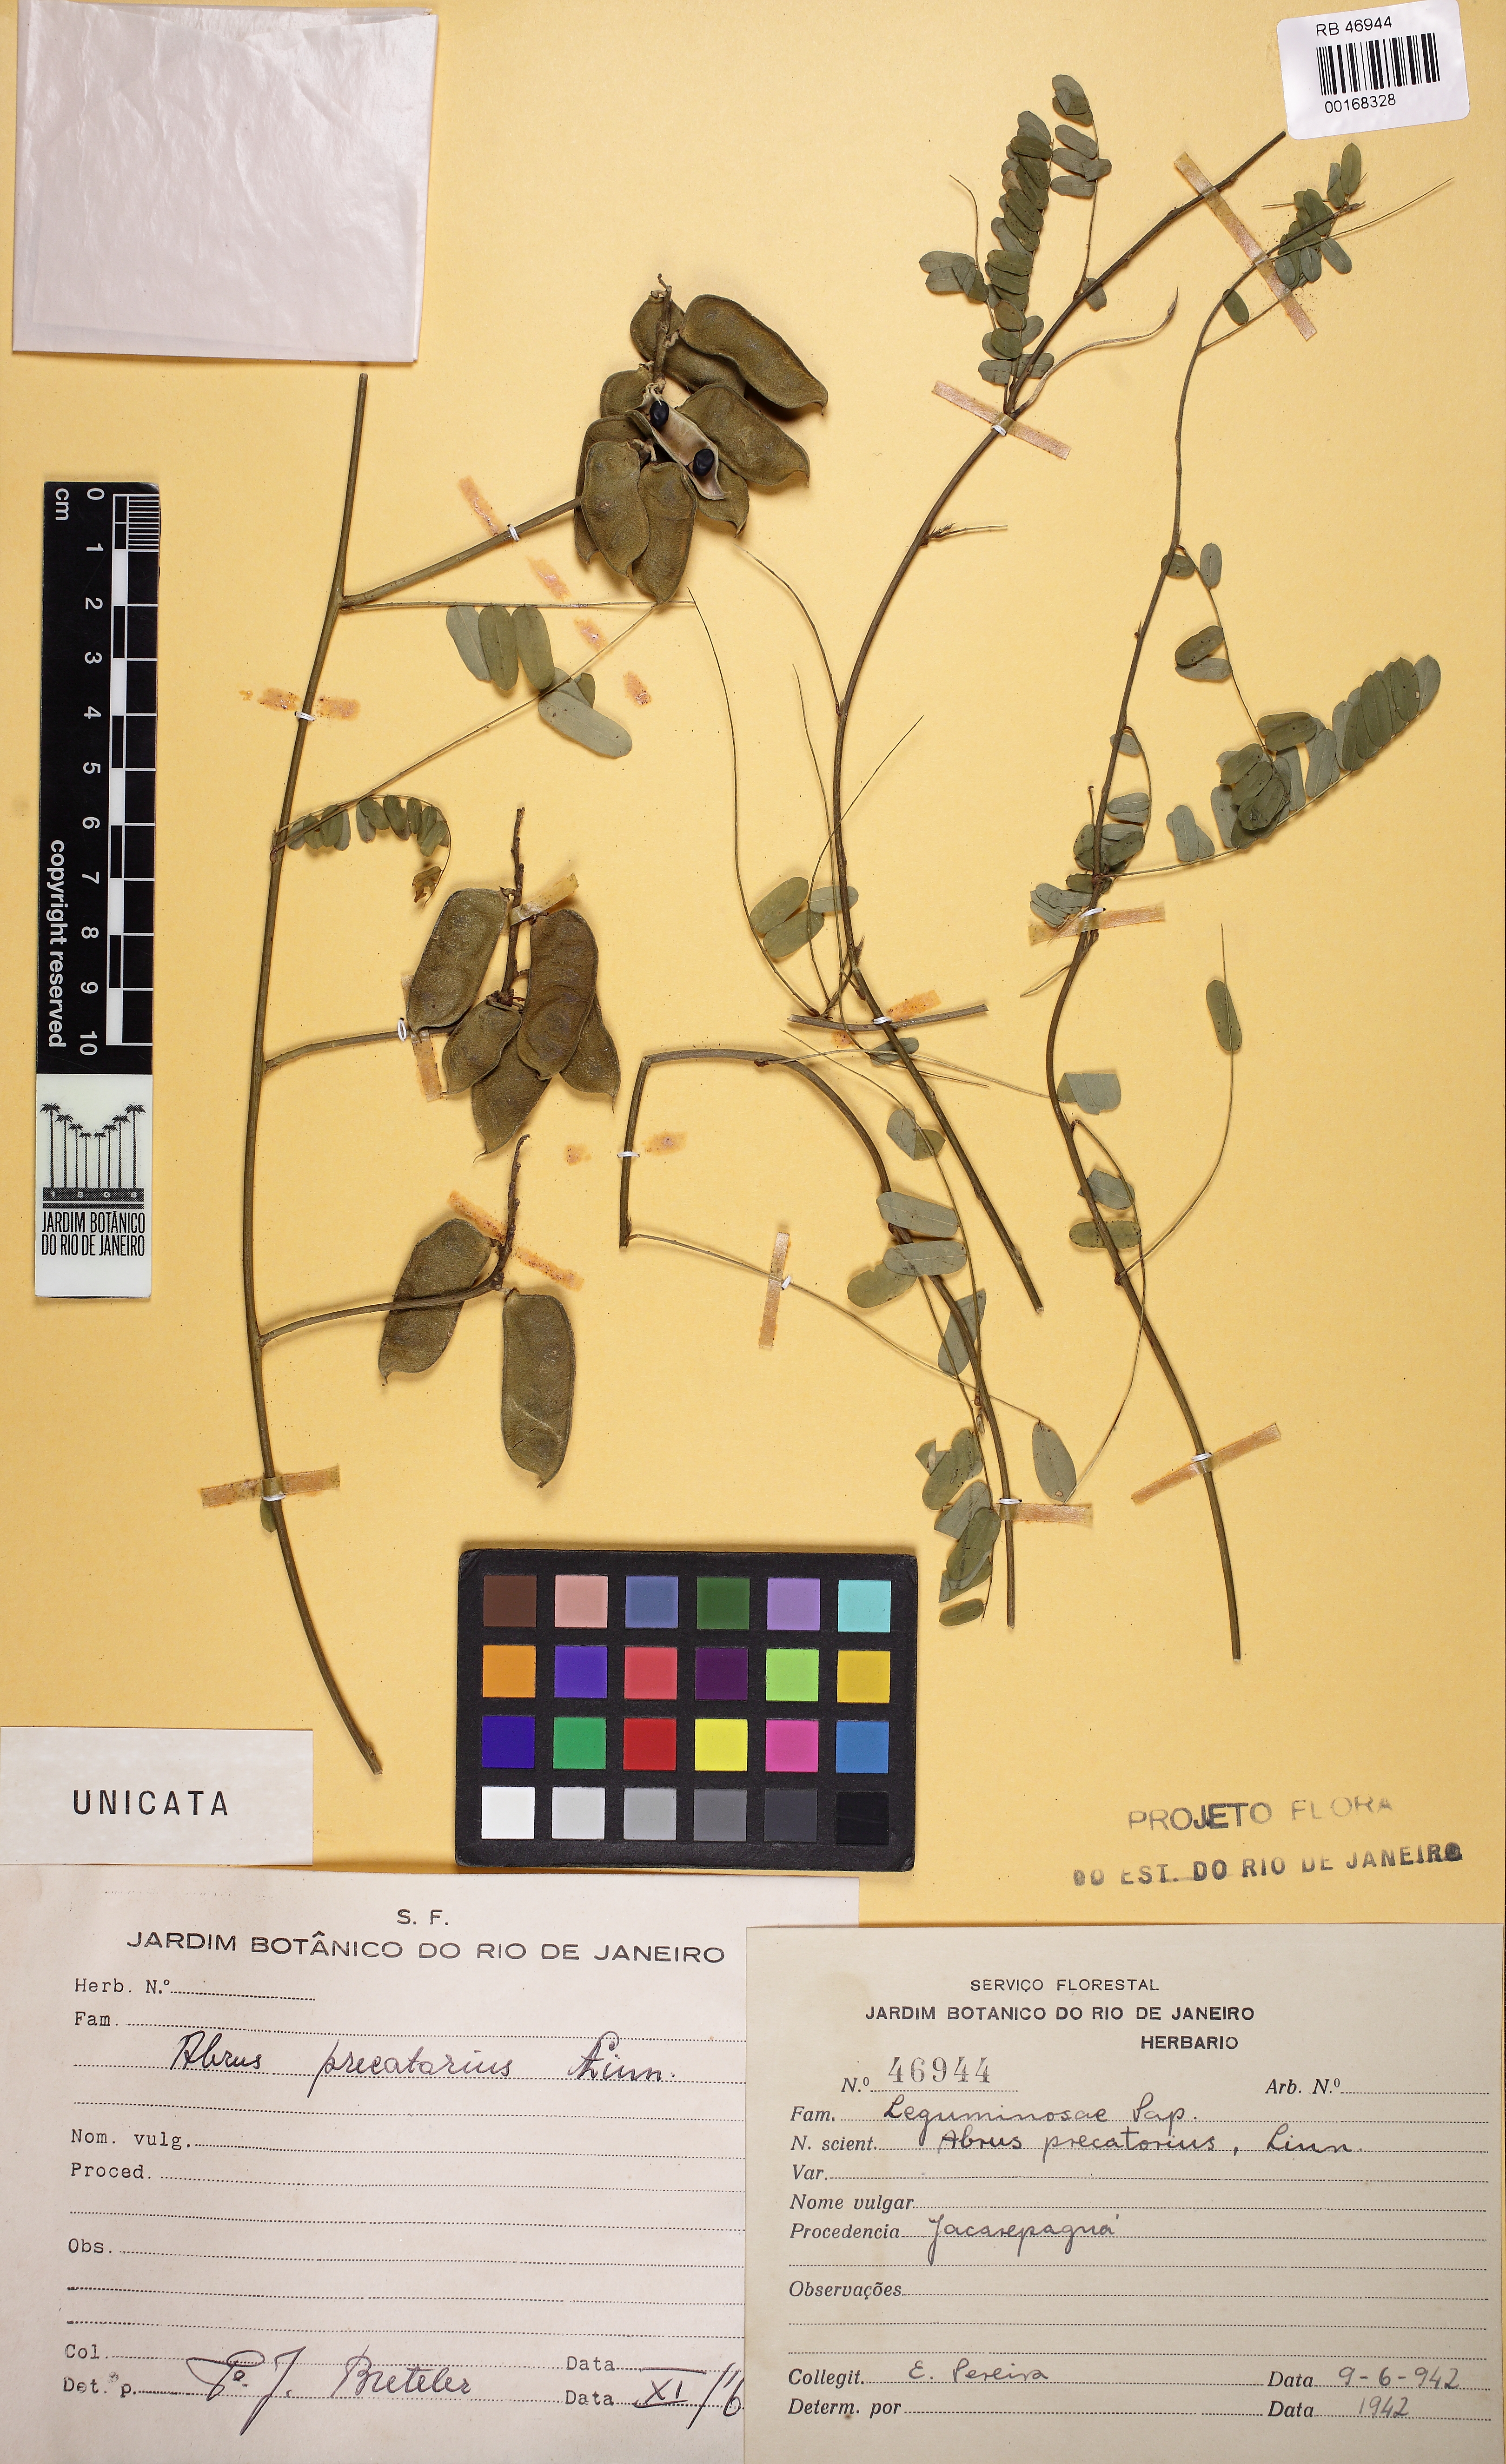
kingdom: Plantae
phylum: Tracheophyta
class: Magnoliopsida
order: Fabales
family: Fabaceae
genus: Abrus
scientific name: Abrus precatorius
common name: Rosarypea
